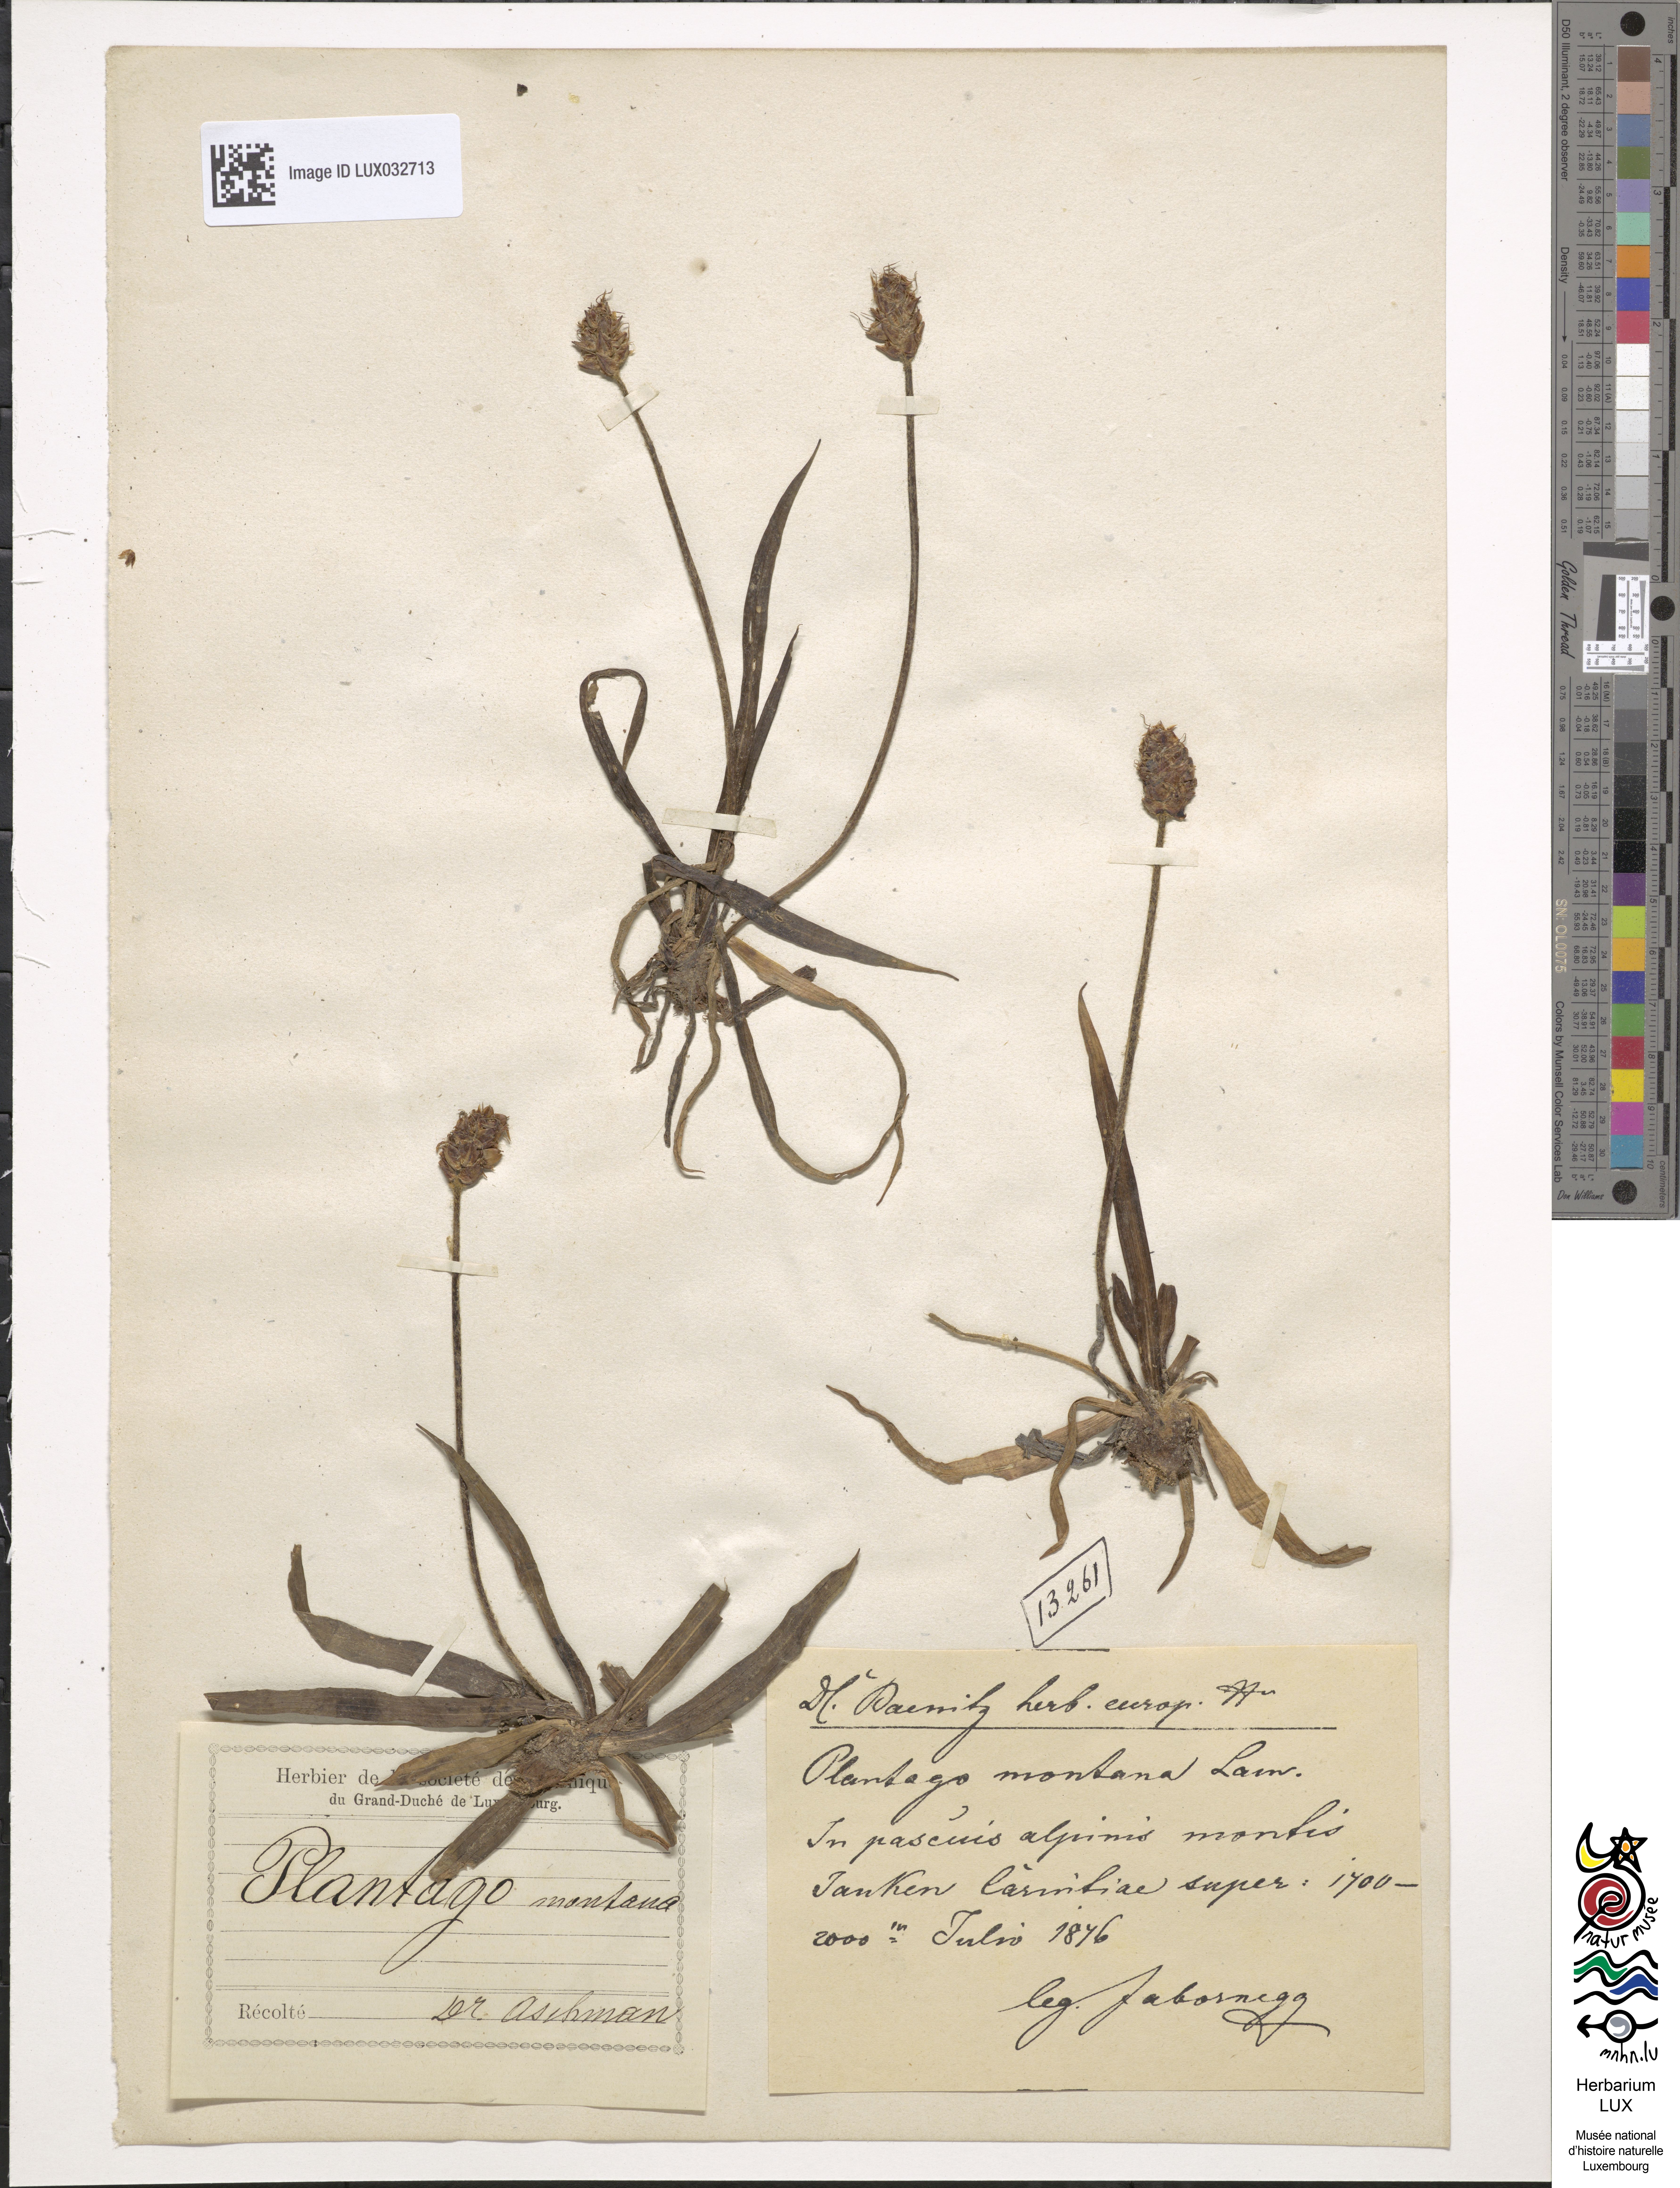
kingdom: Plantae
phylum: Tracheophyta
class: Magnoliopsida
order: Lamiales
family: Plantaginaceae
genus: Plantago
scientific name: Plantago atrata
